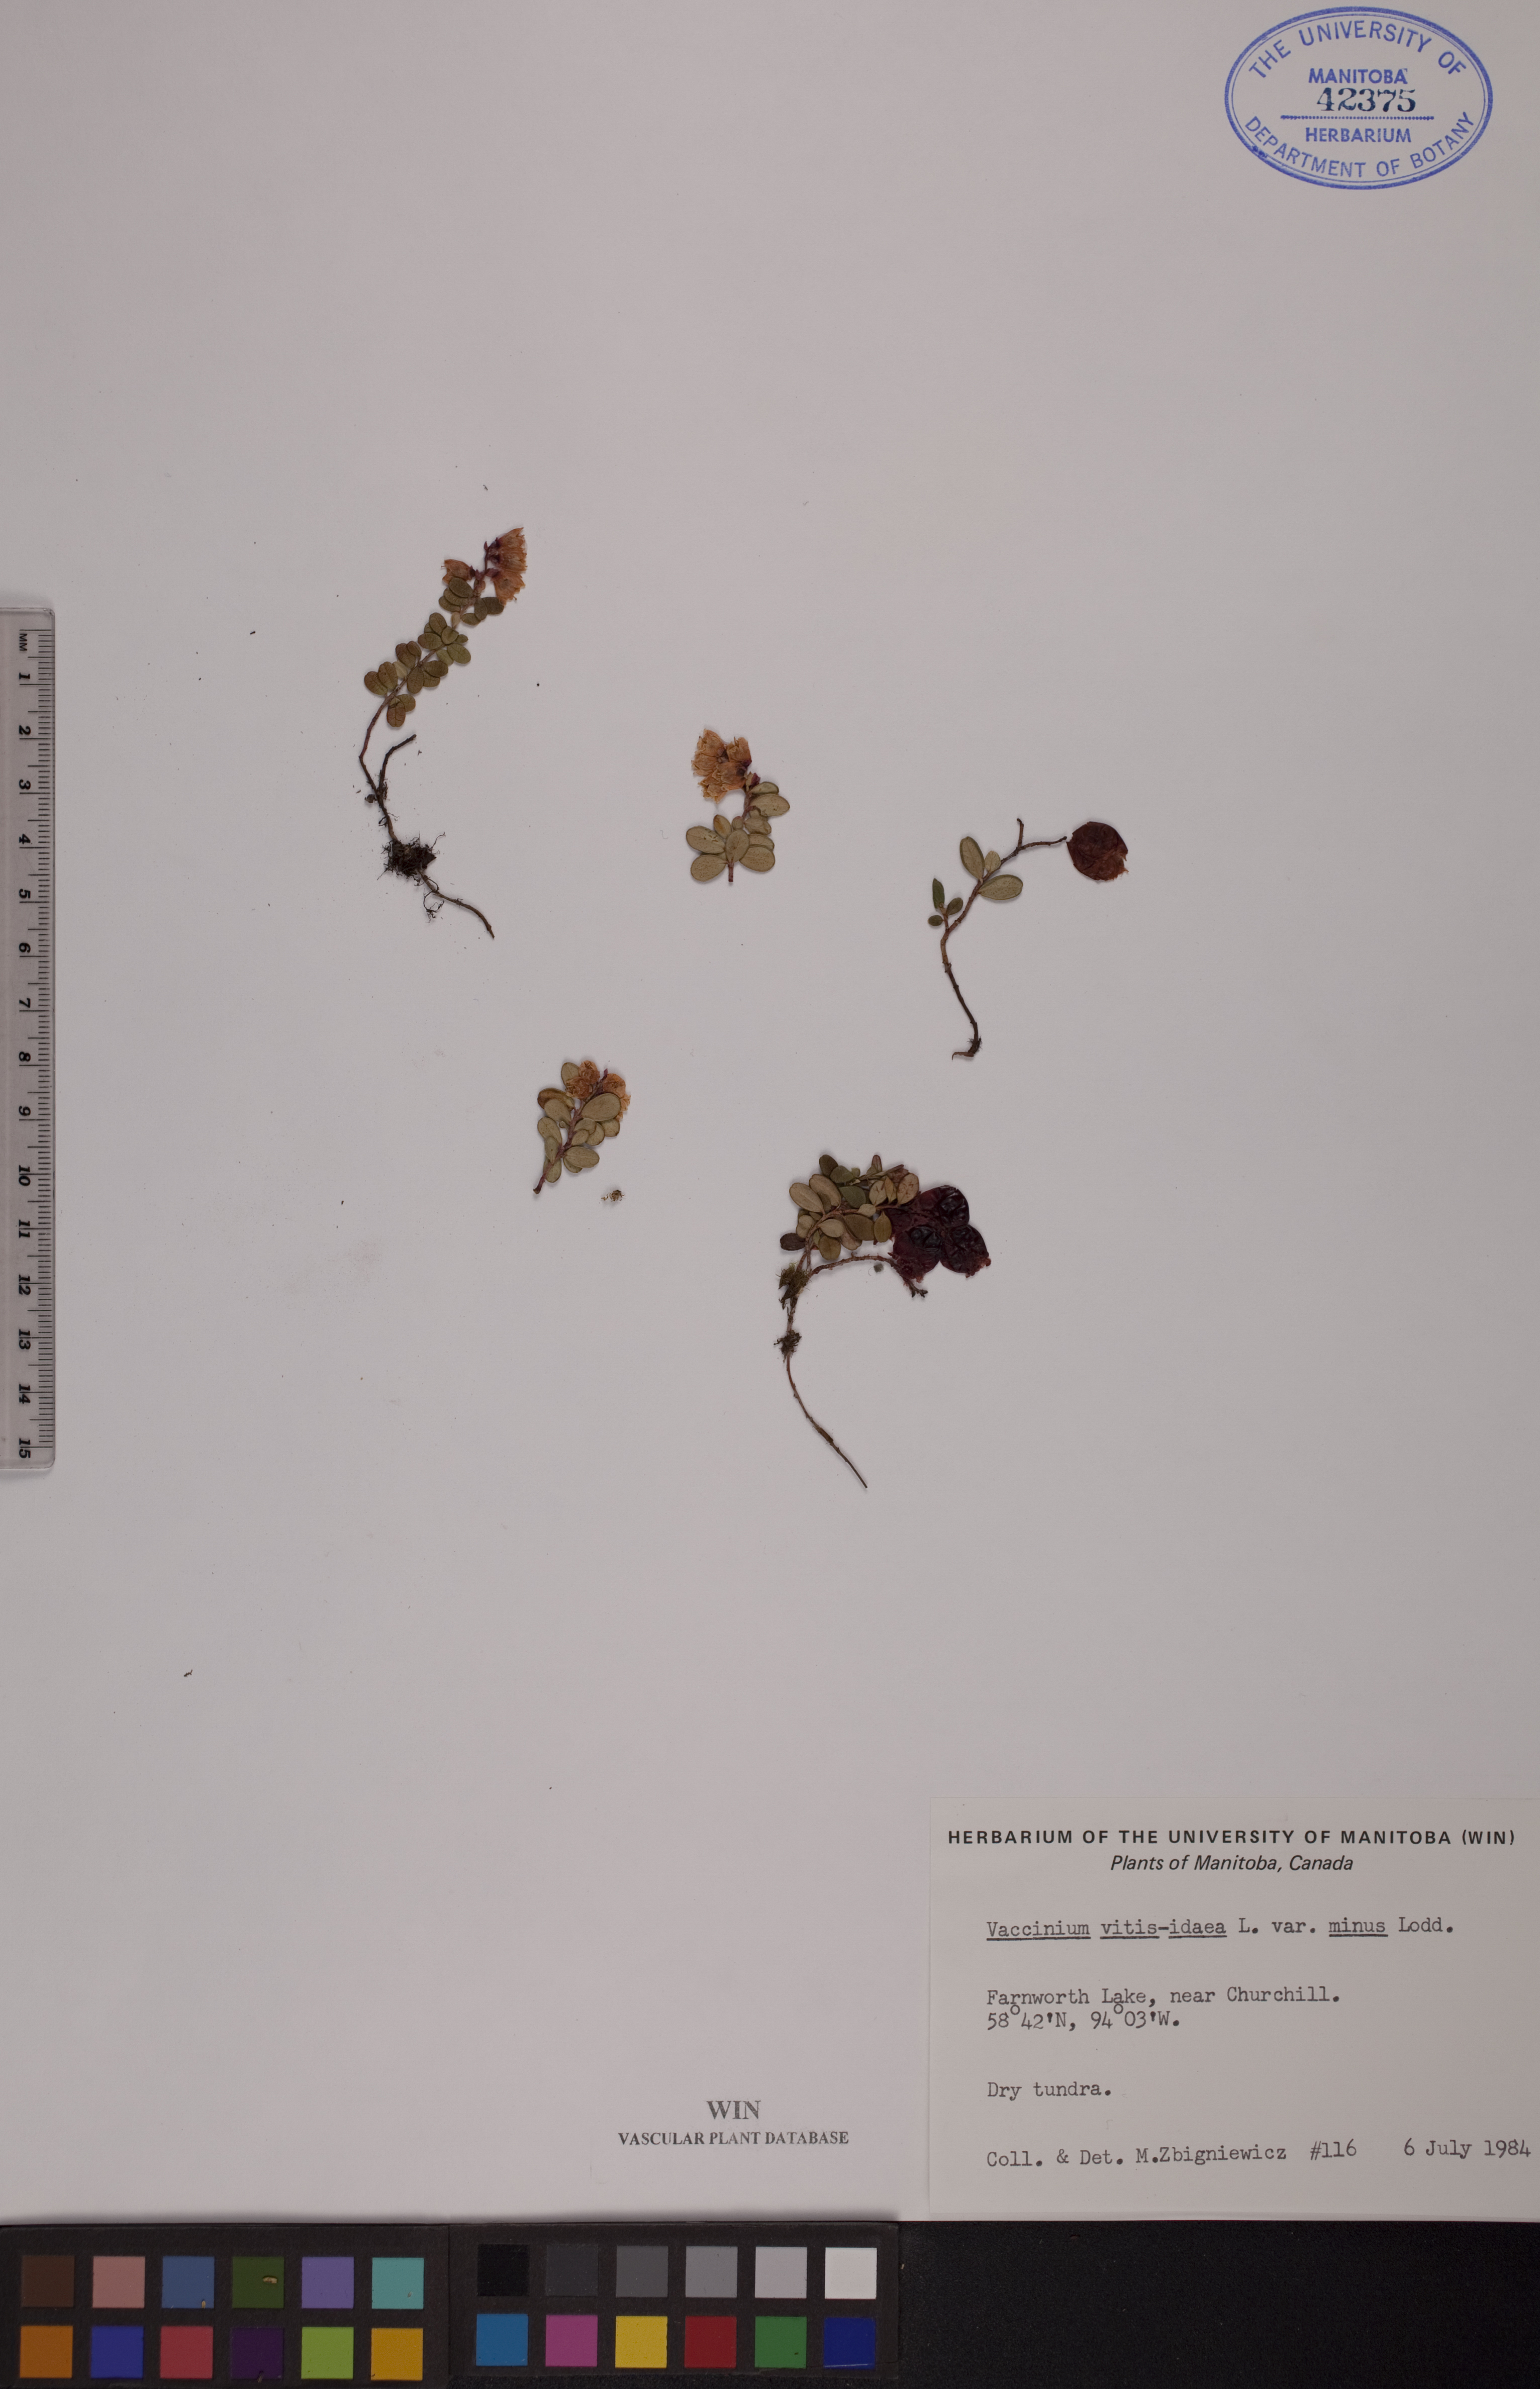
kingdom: Plantae
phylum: Tracheophyta
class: Magnoliopsida
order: Ericales
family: Ericaceae
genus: Vaccinium
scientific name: Vaccinium vitis-idaea
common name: Cowberry
